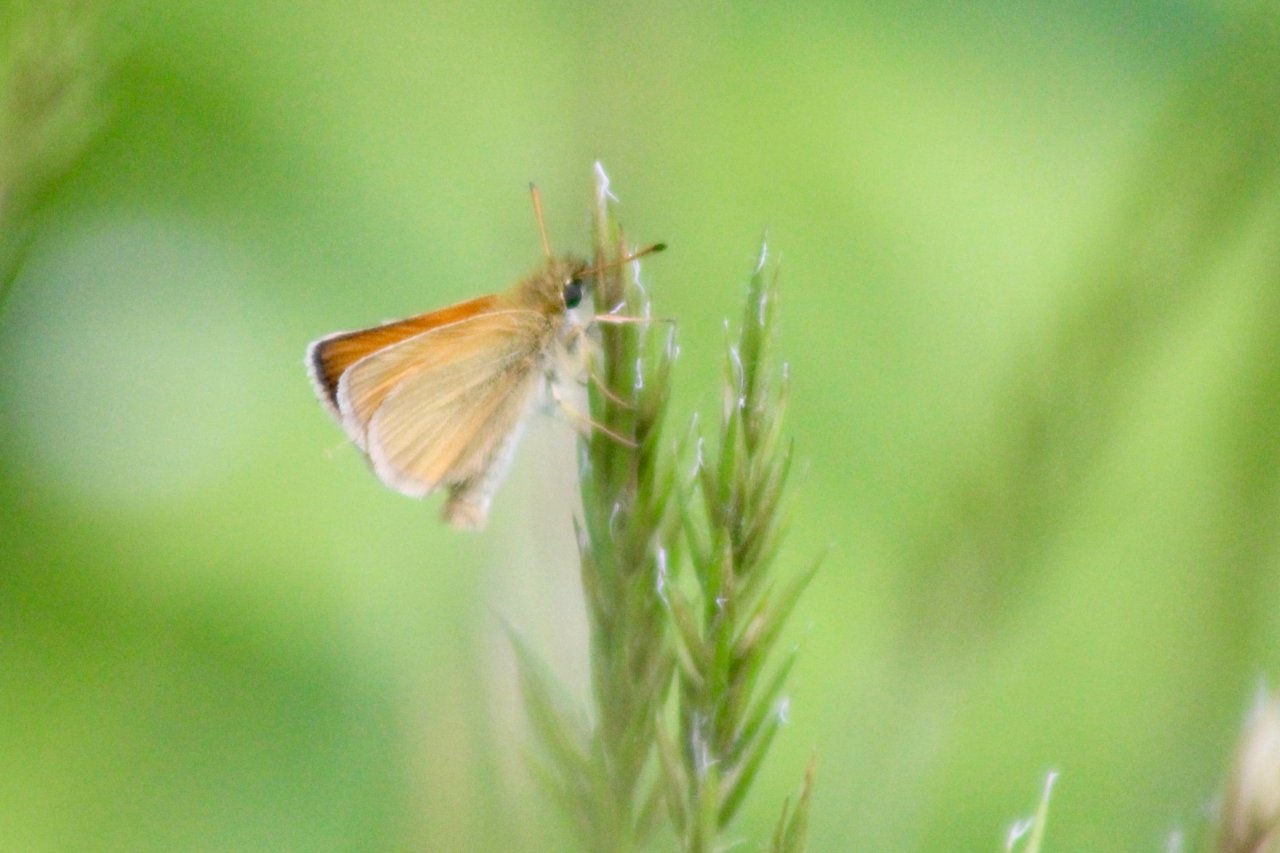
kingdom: Animalia
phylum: Arthropoda
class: Insecta
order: Lepidoptera
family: Hesperiidae
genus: Thymelicus
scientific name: Thymelicus lineola
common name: European Skipper
